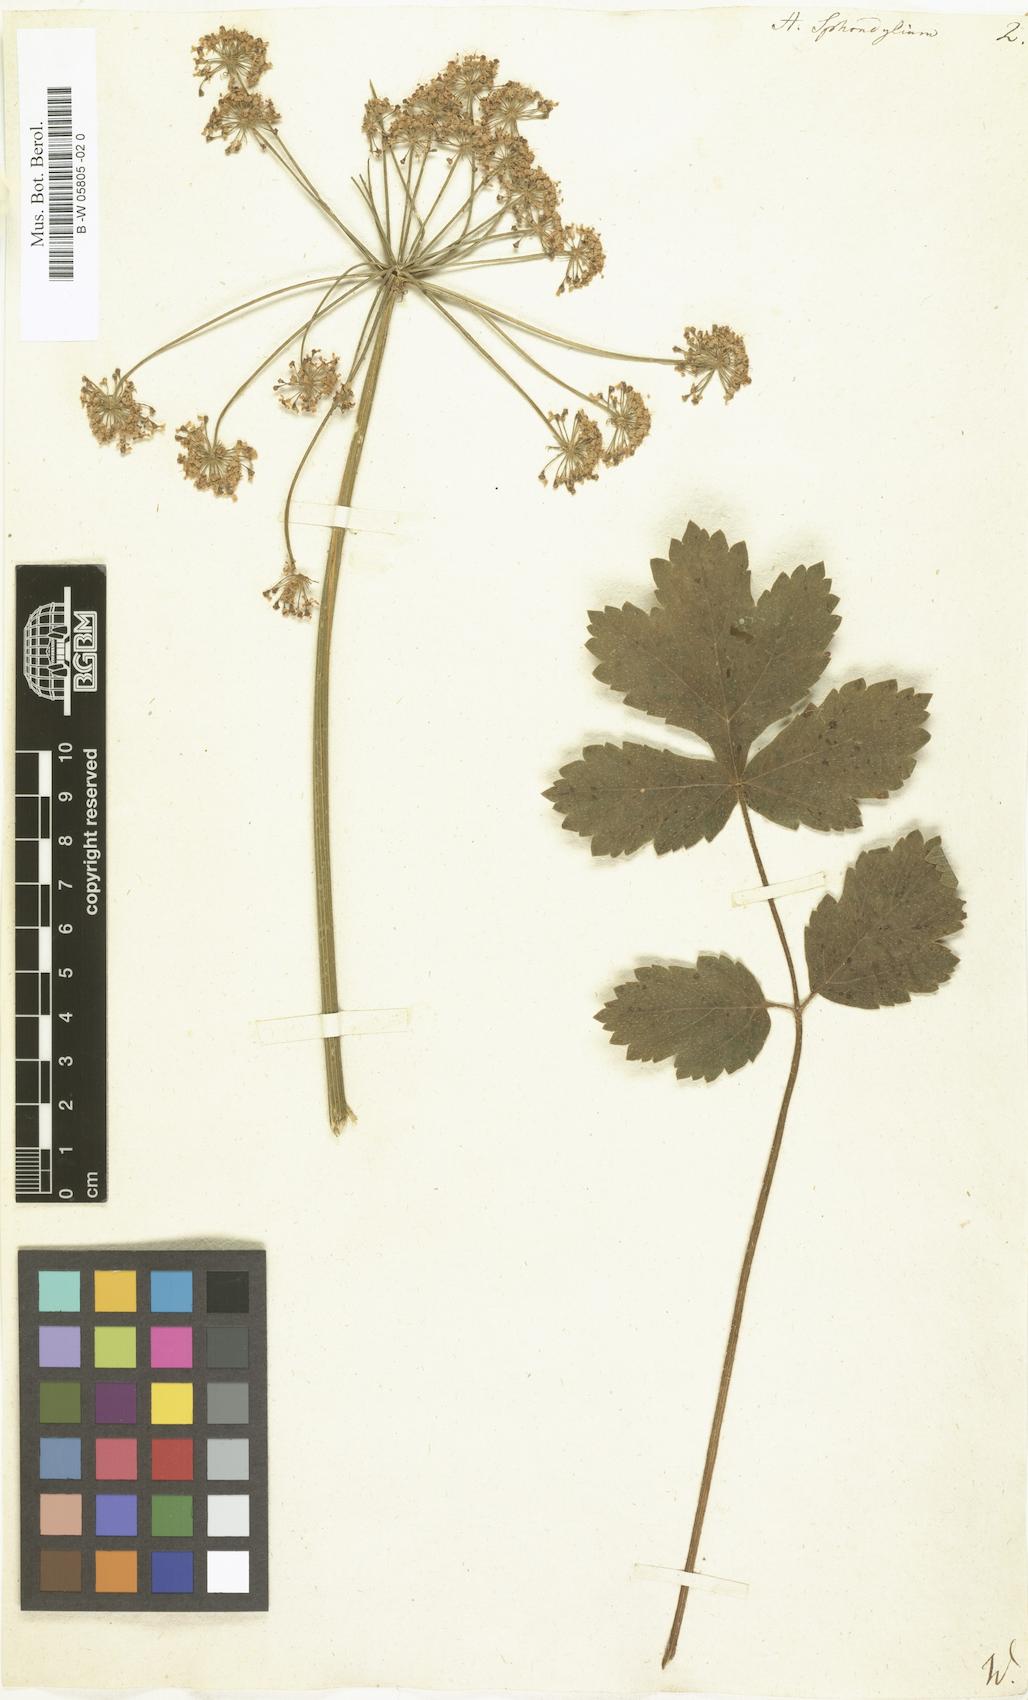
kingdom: Plantae
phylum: Tracheophyta
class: Magnoliopsida
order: Apiales
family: Apiaceae
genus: Heracleum
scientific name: Heracleum sphondylium
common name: Hogweed
